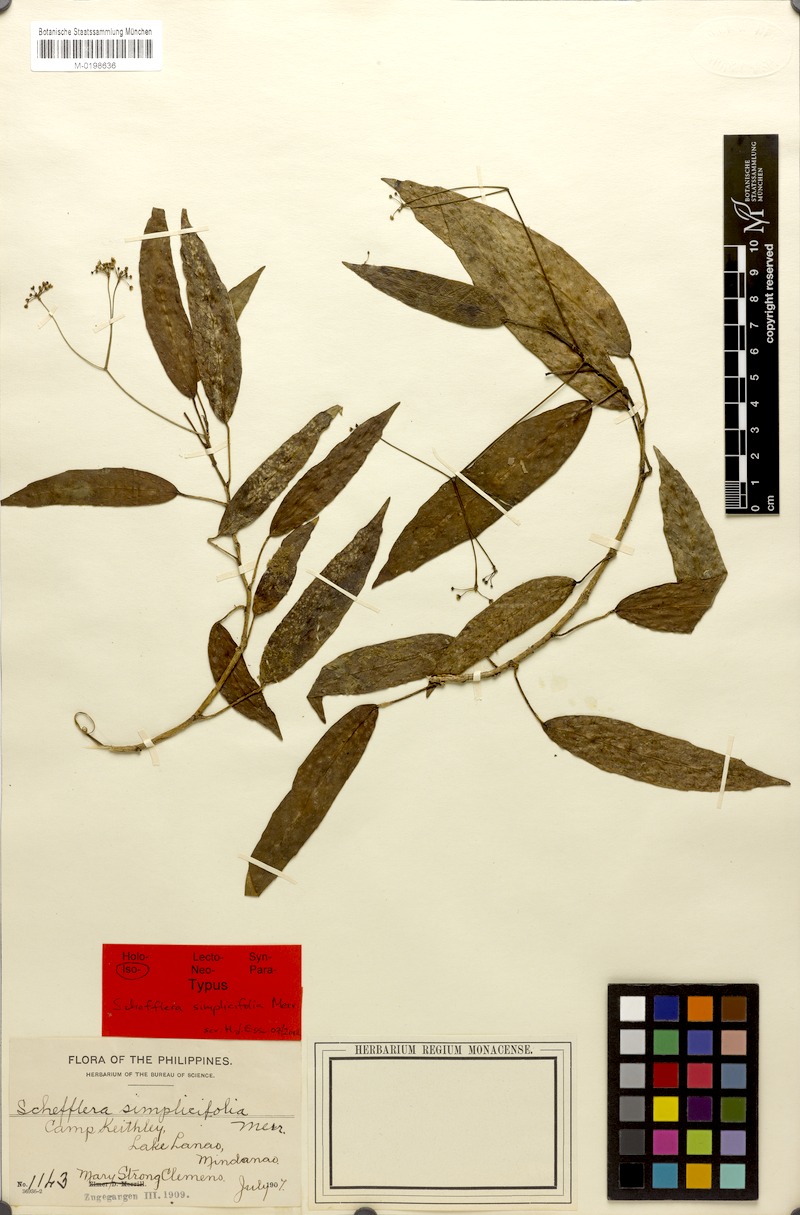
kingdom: Plantae
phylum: Tracheophyta
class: Magnoliopsida
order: Apiales
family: Araliaceae
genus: Heptapleurum
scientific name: Heptapleurum simplicifolium
